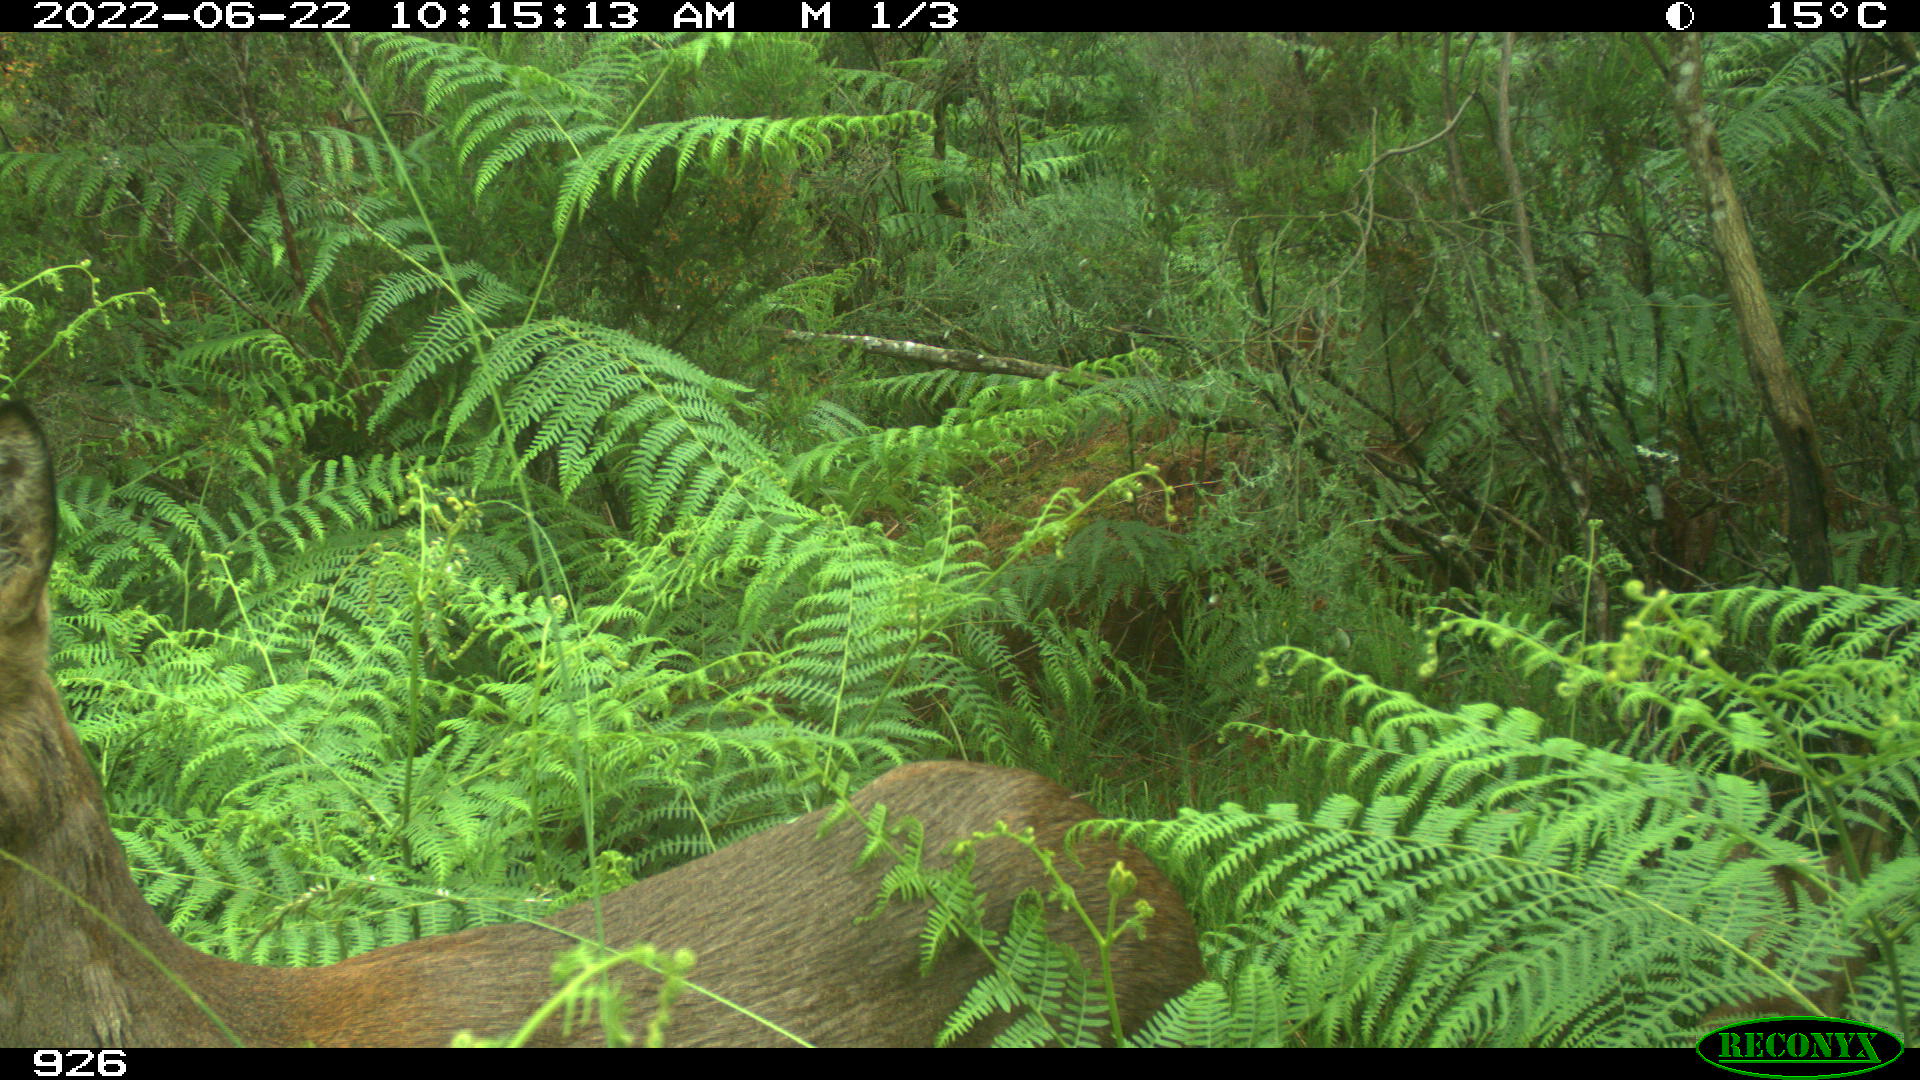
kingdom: Animalia
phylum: Chordata
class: Mammalia
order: Artiodactyla
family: Cervidae
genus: Capreolus
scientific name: Capreolus capreolus
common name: Western roe deer
